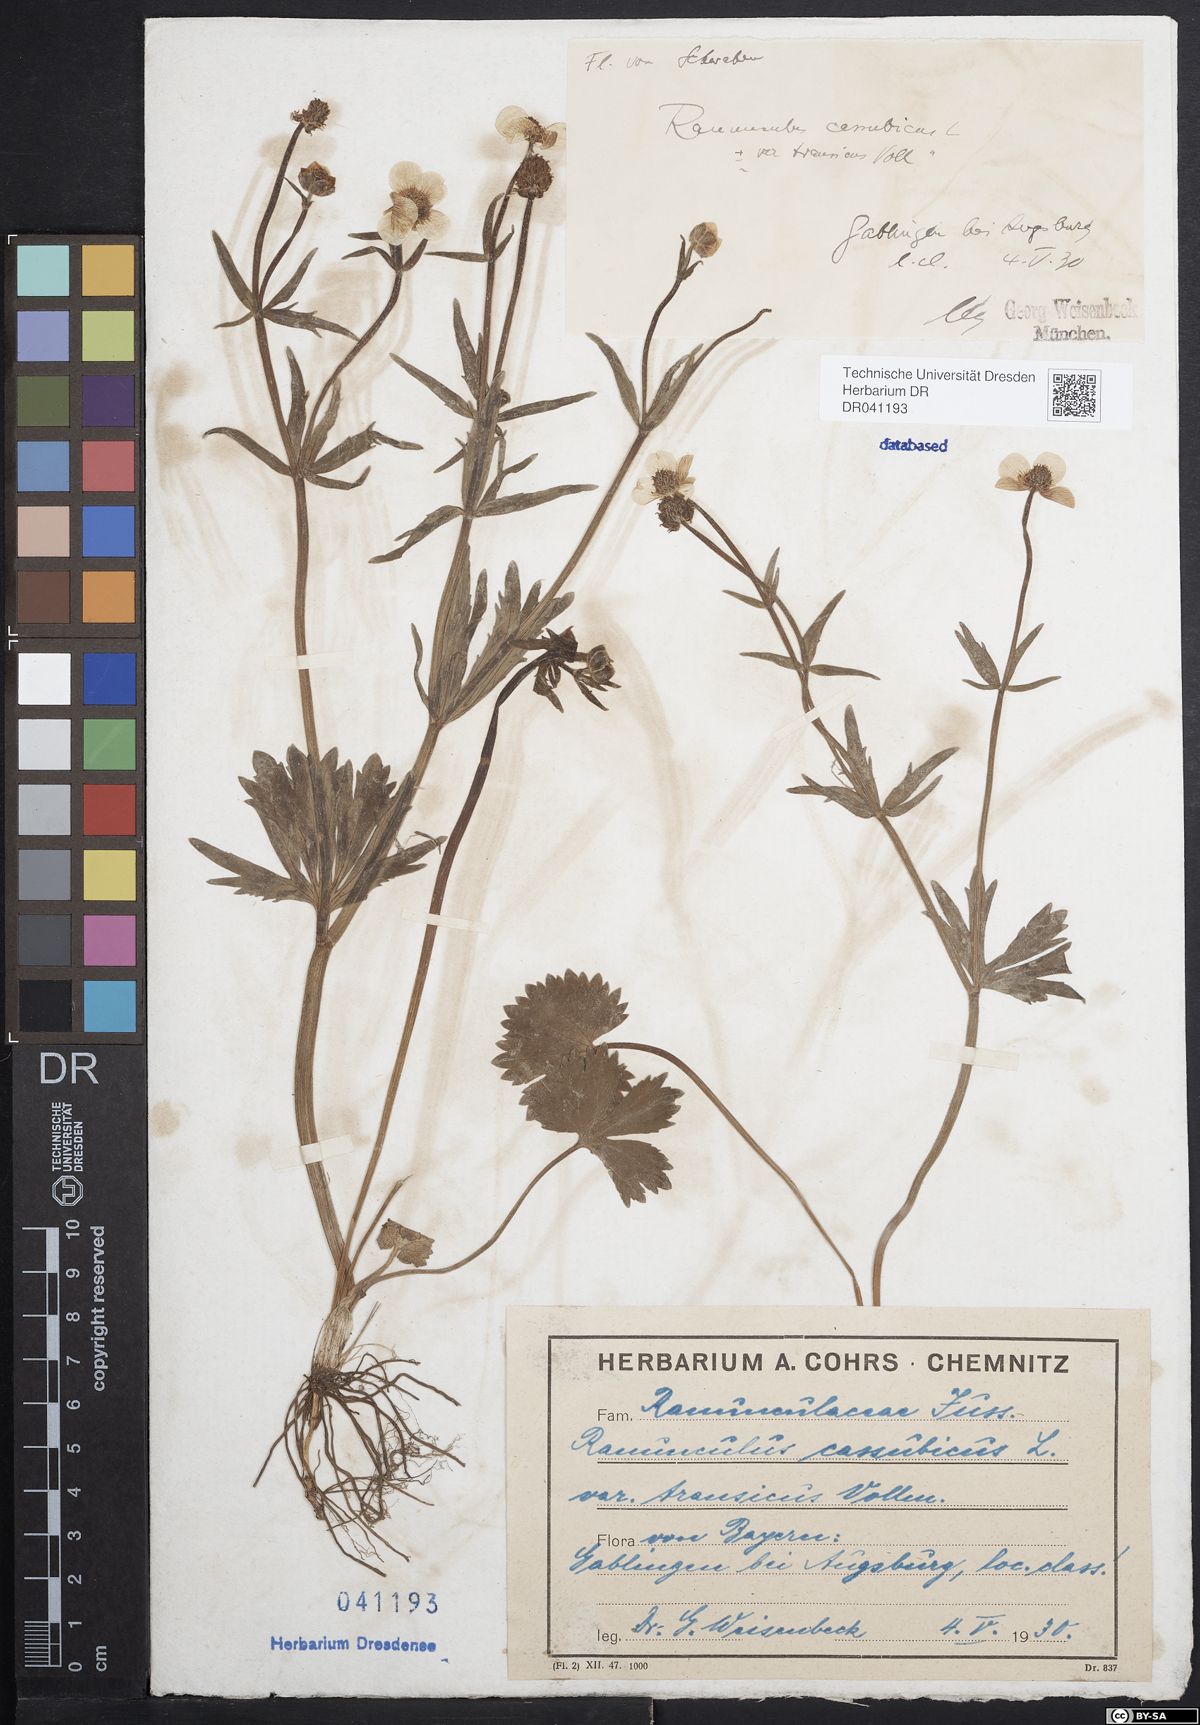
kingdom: Plantae
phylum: Tracheophyta
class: Magnoliopsida
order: Ranunculales
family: Ranunculaceae
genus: Ranunculus
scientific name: Ranunculus cassubicus
